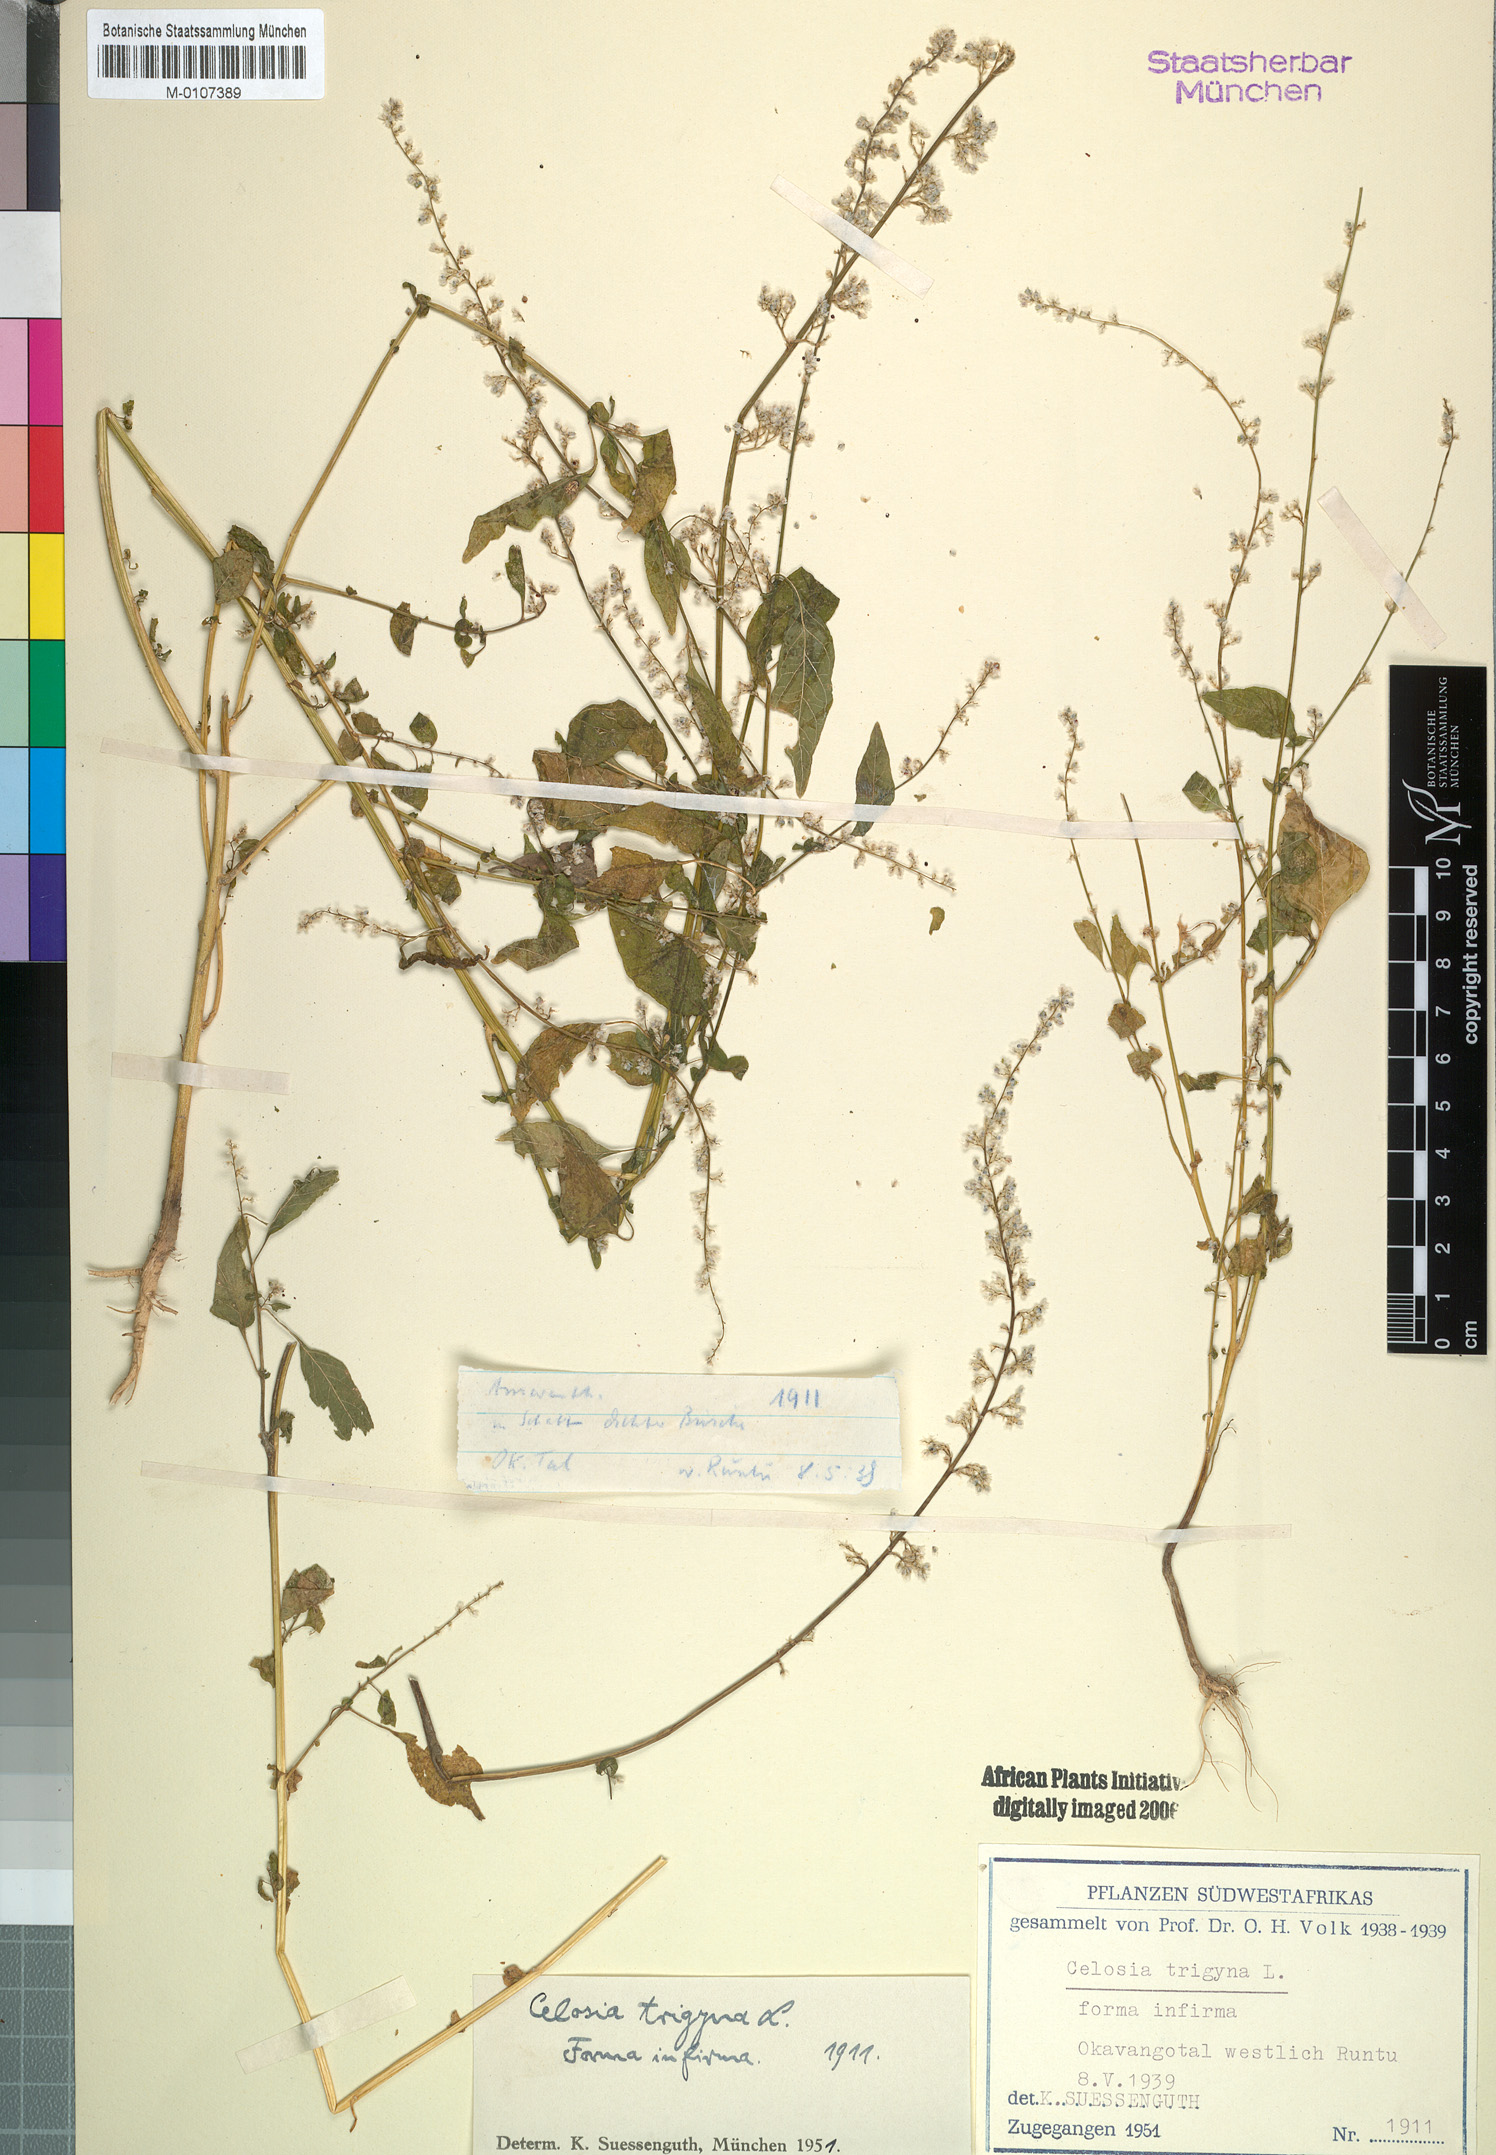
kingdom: Plantae
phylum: Tracheophyta
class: Magnoliopsida
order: Caryophyllales
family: Amaranthaceae
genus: Celosia
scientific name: Celosia trigyna
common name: Woolflower
